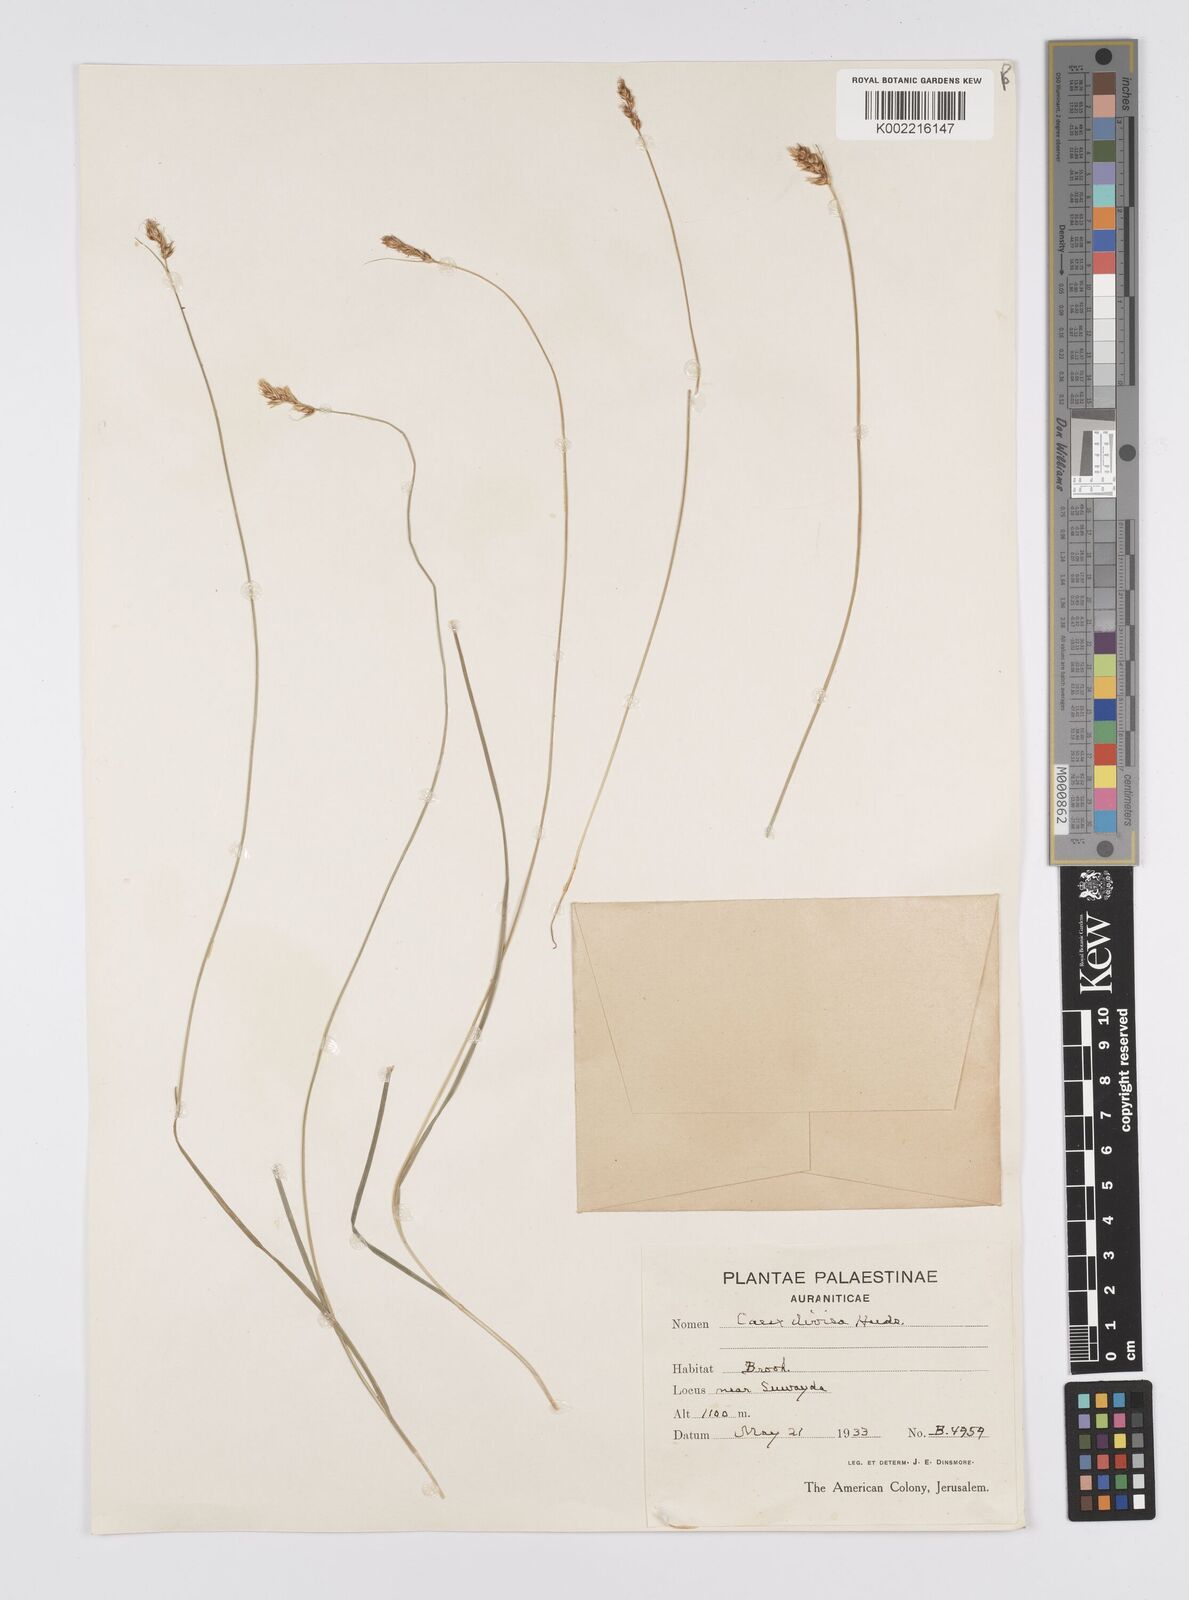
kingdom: Plantae
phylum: Tracheophyta
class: Liliopsida
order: Poales
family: Cyperaceae
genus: Carex
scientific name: Carex divisa
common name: Divided sedge
